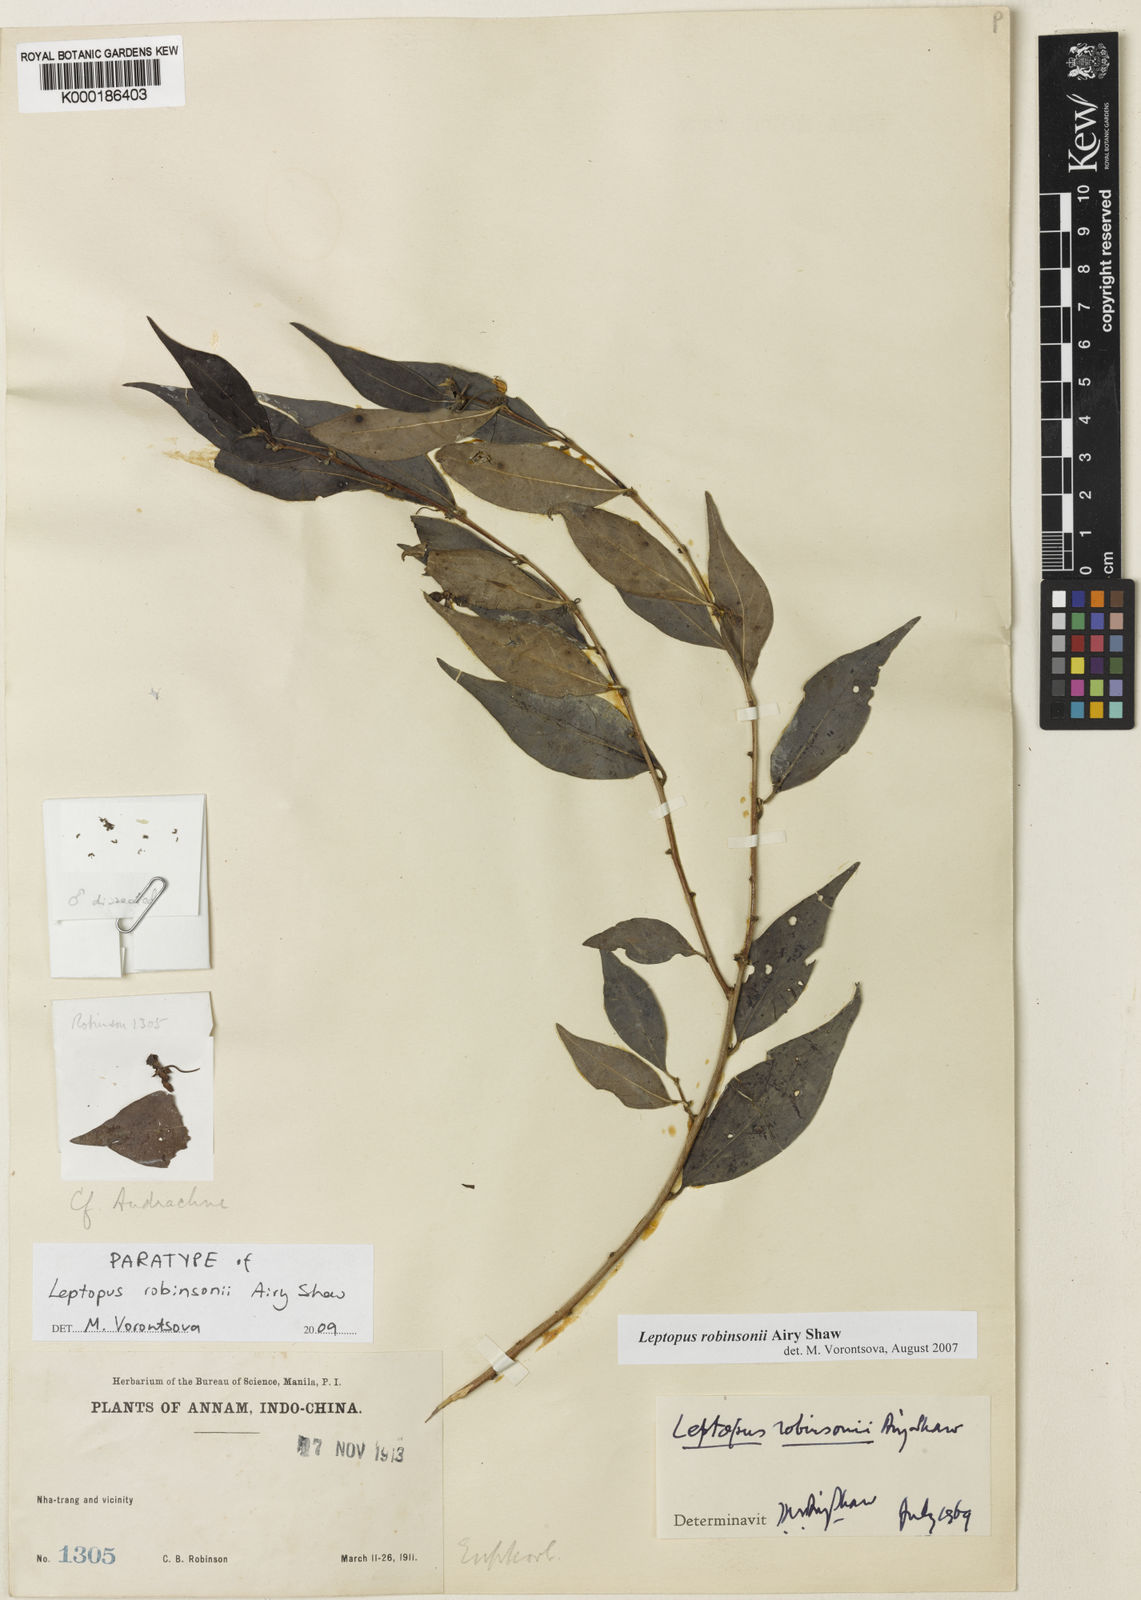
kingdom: Plantae
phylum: Tracheophyta
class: Magnoliopsida
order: Malpighiales
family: Phyllanthaceae
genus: Leptopus
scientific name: Leptopus robinsonii
